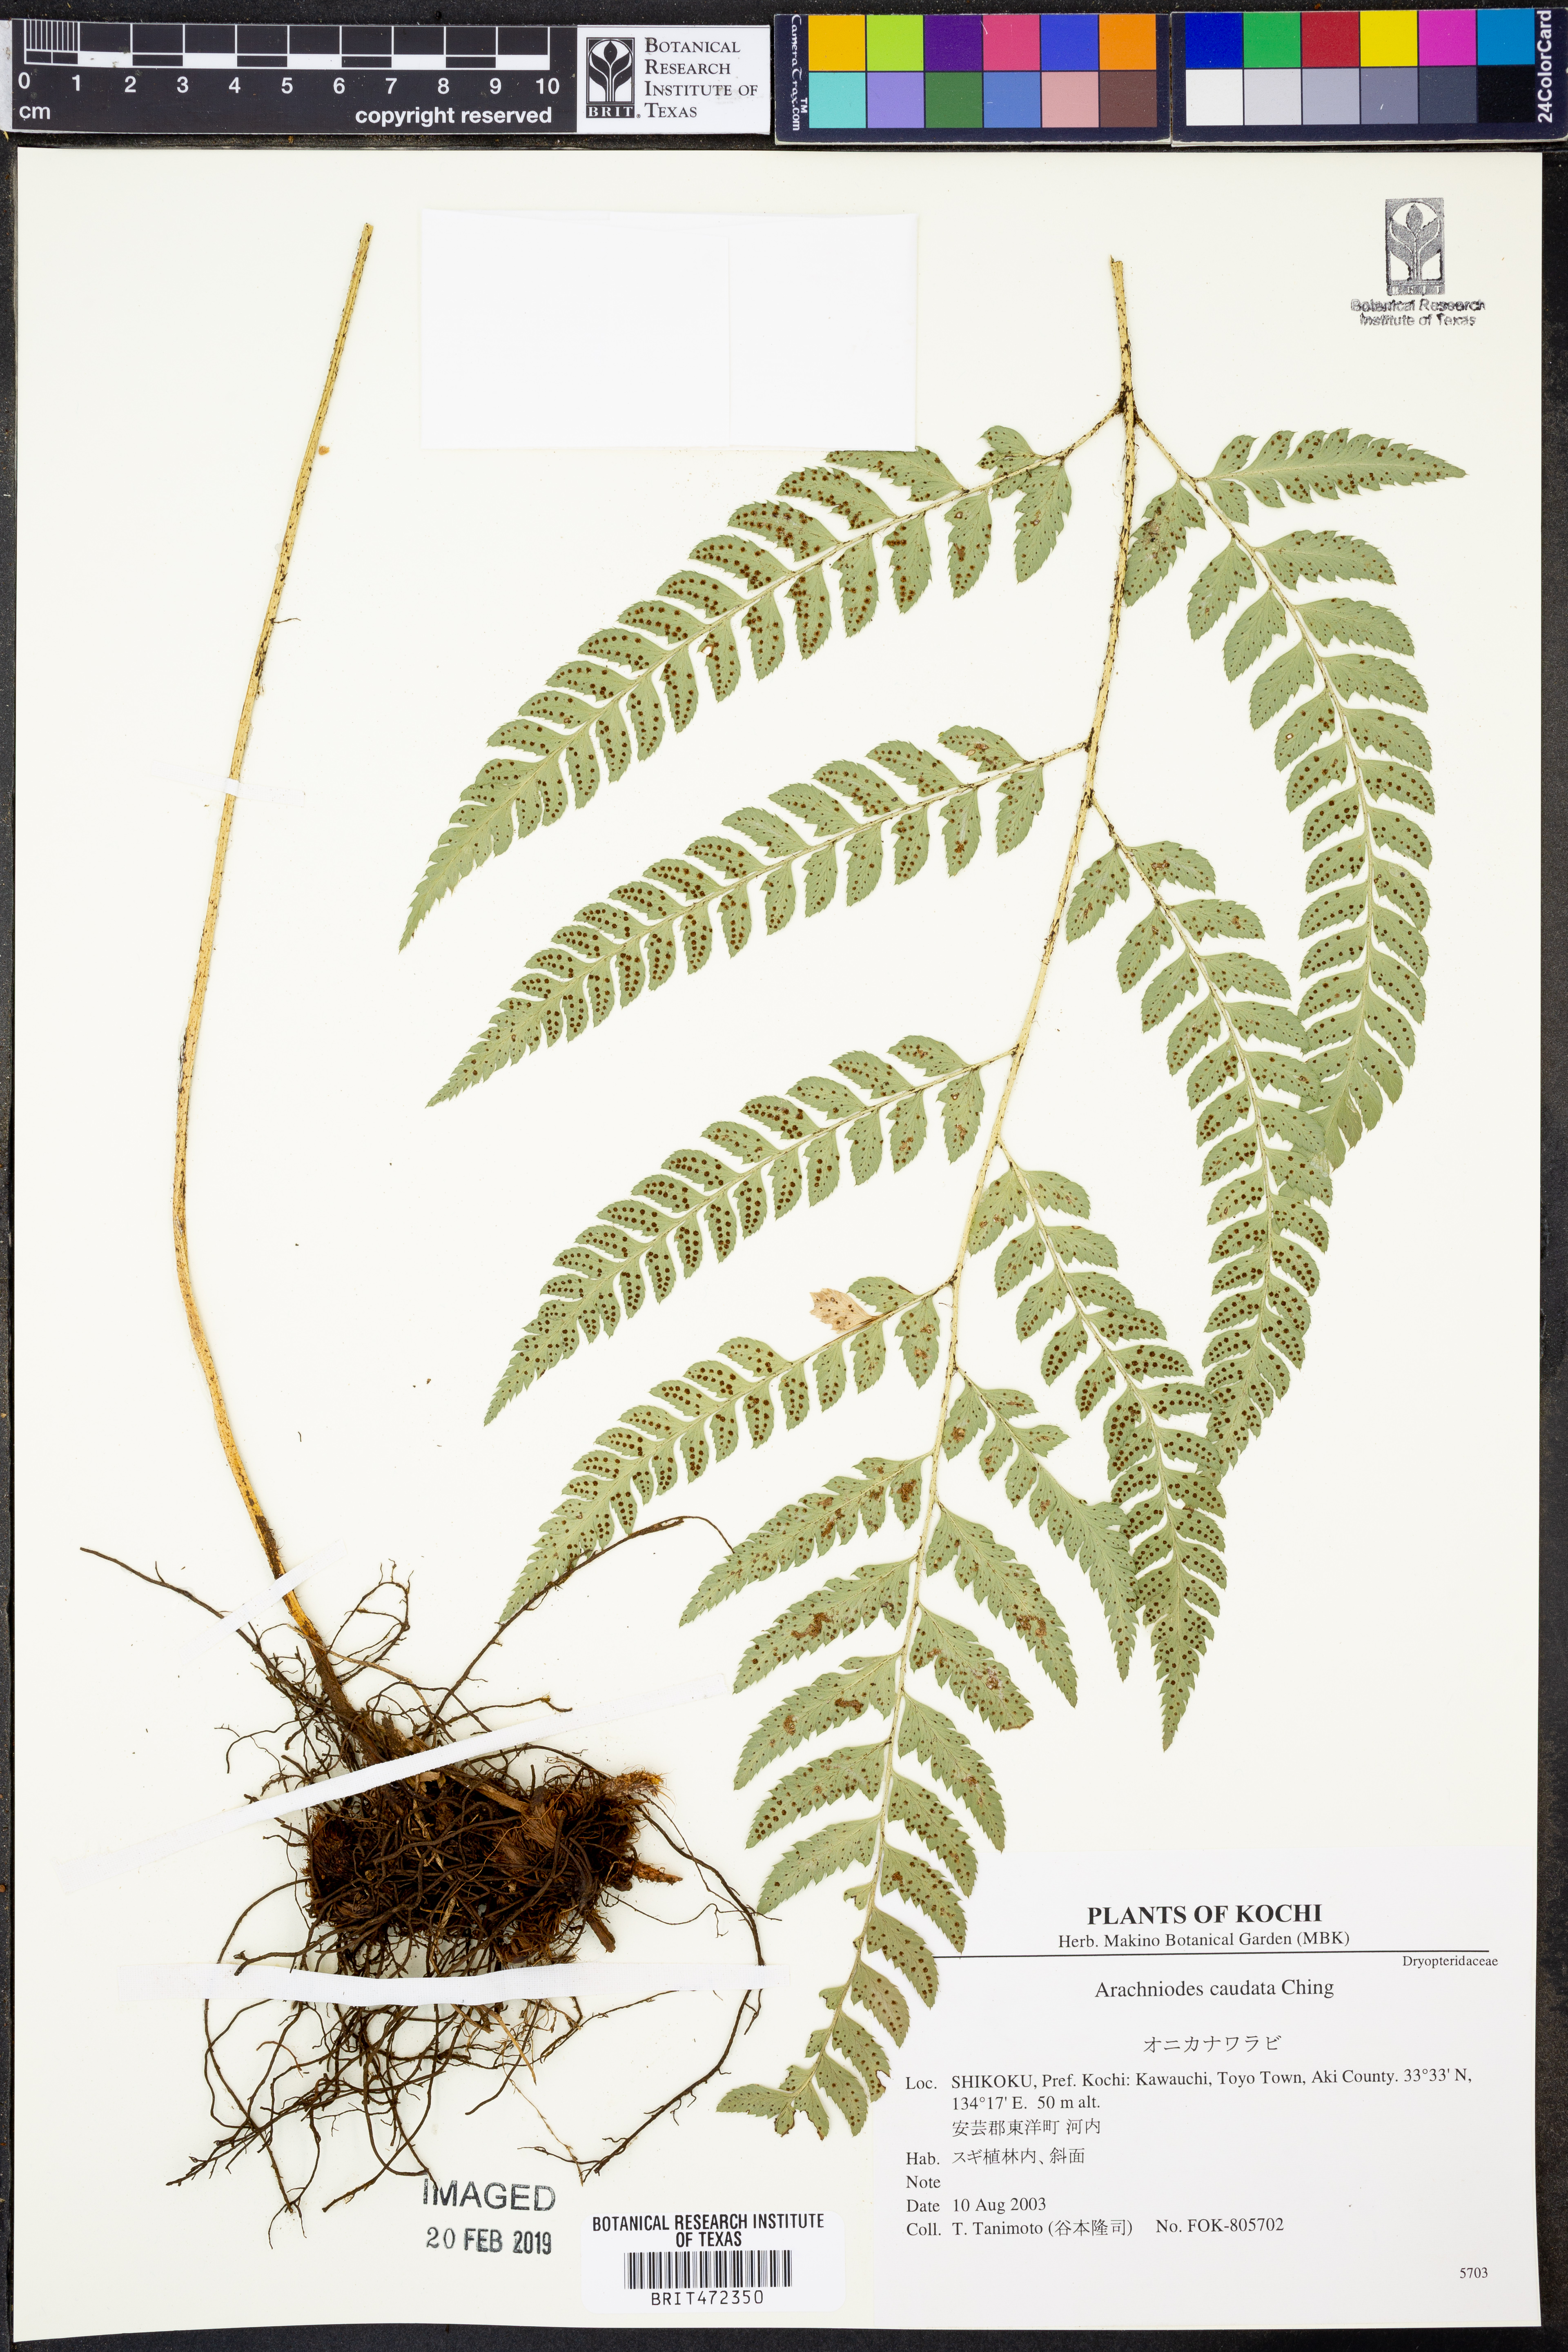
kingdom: Plantae
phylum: Tracheophyta
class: Polypodiopsida
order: Polypodiales
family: Dryopteridaceae
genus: Arachniodes
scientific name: Arachniodes chinensis
